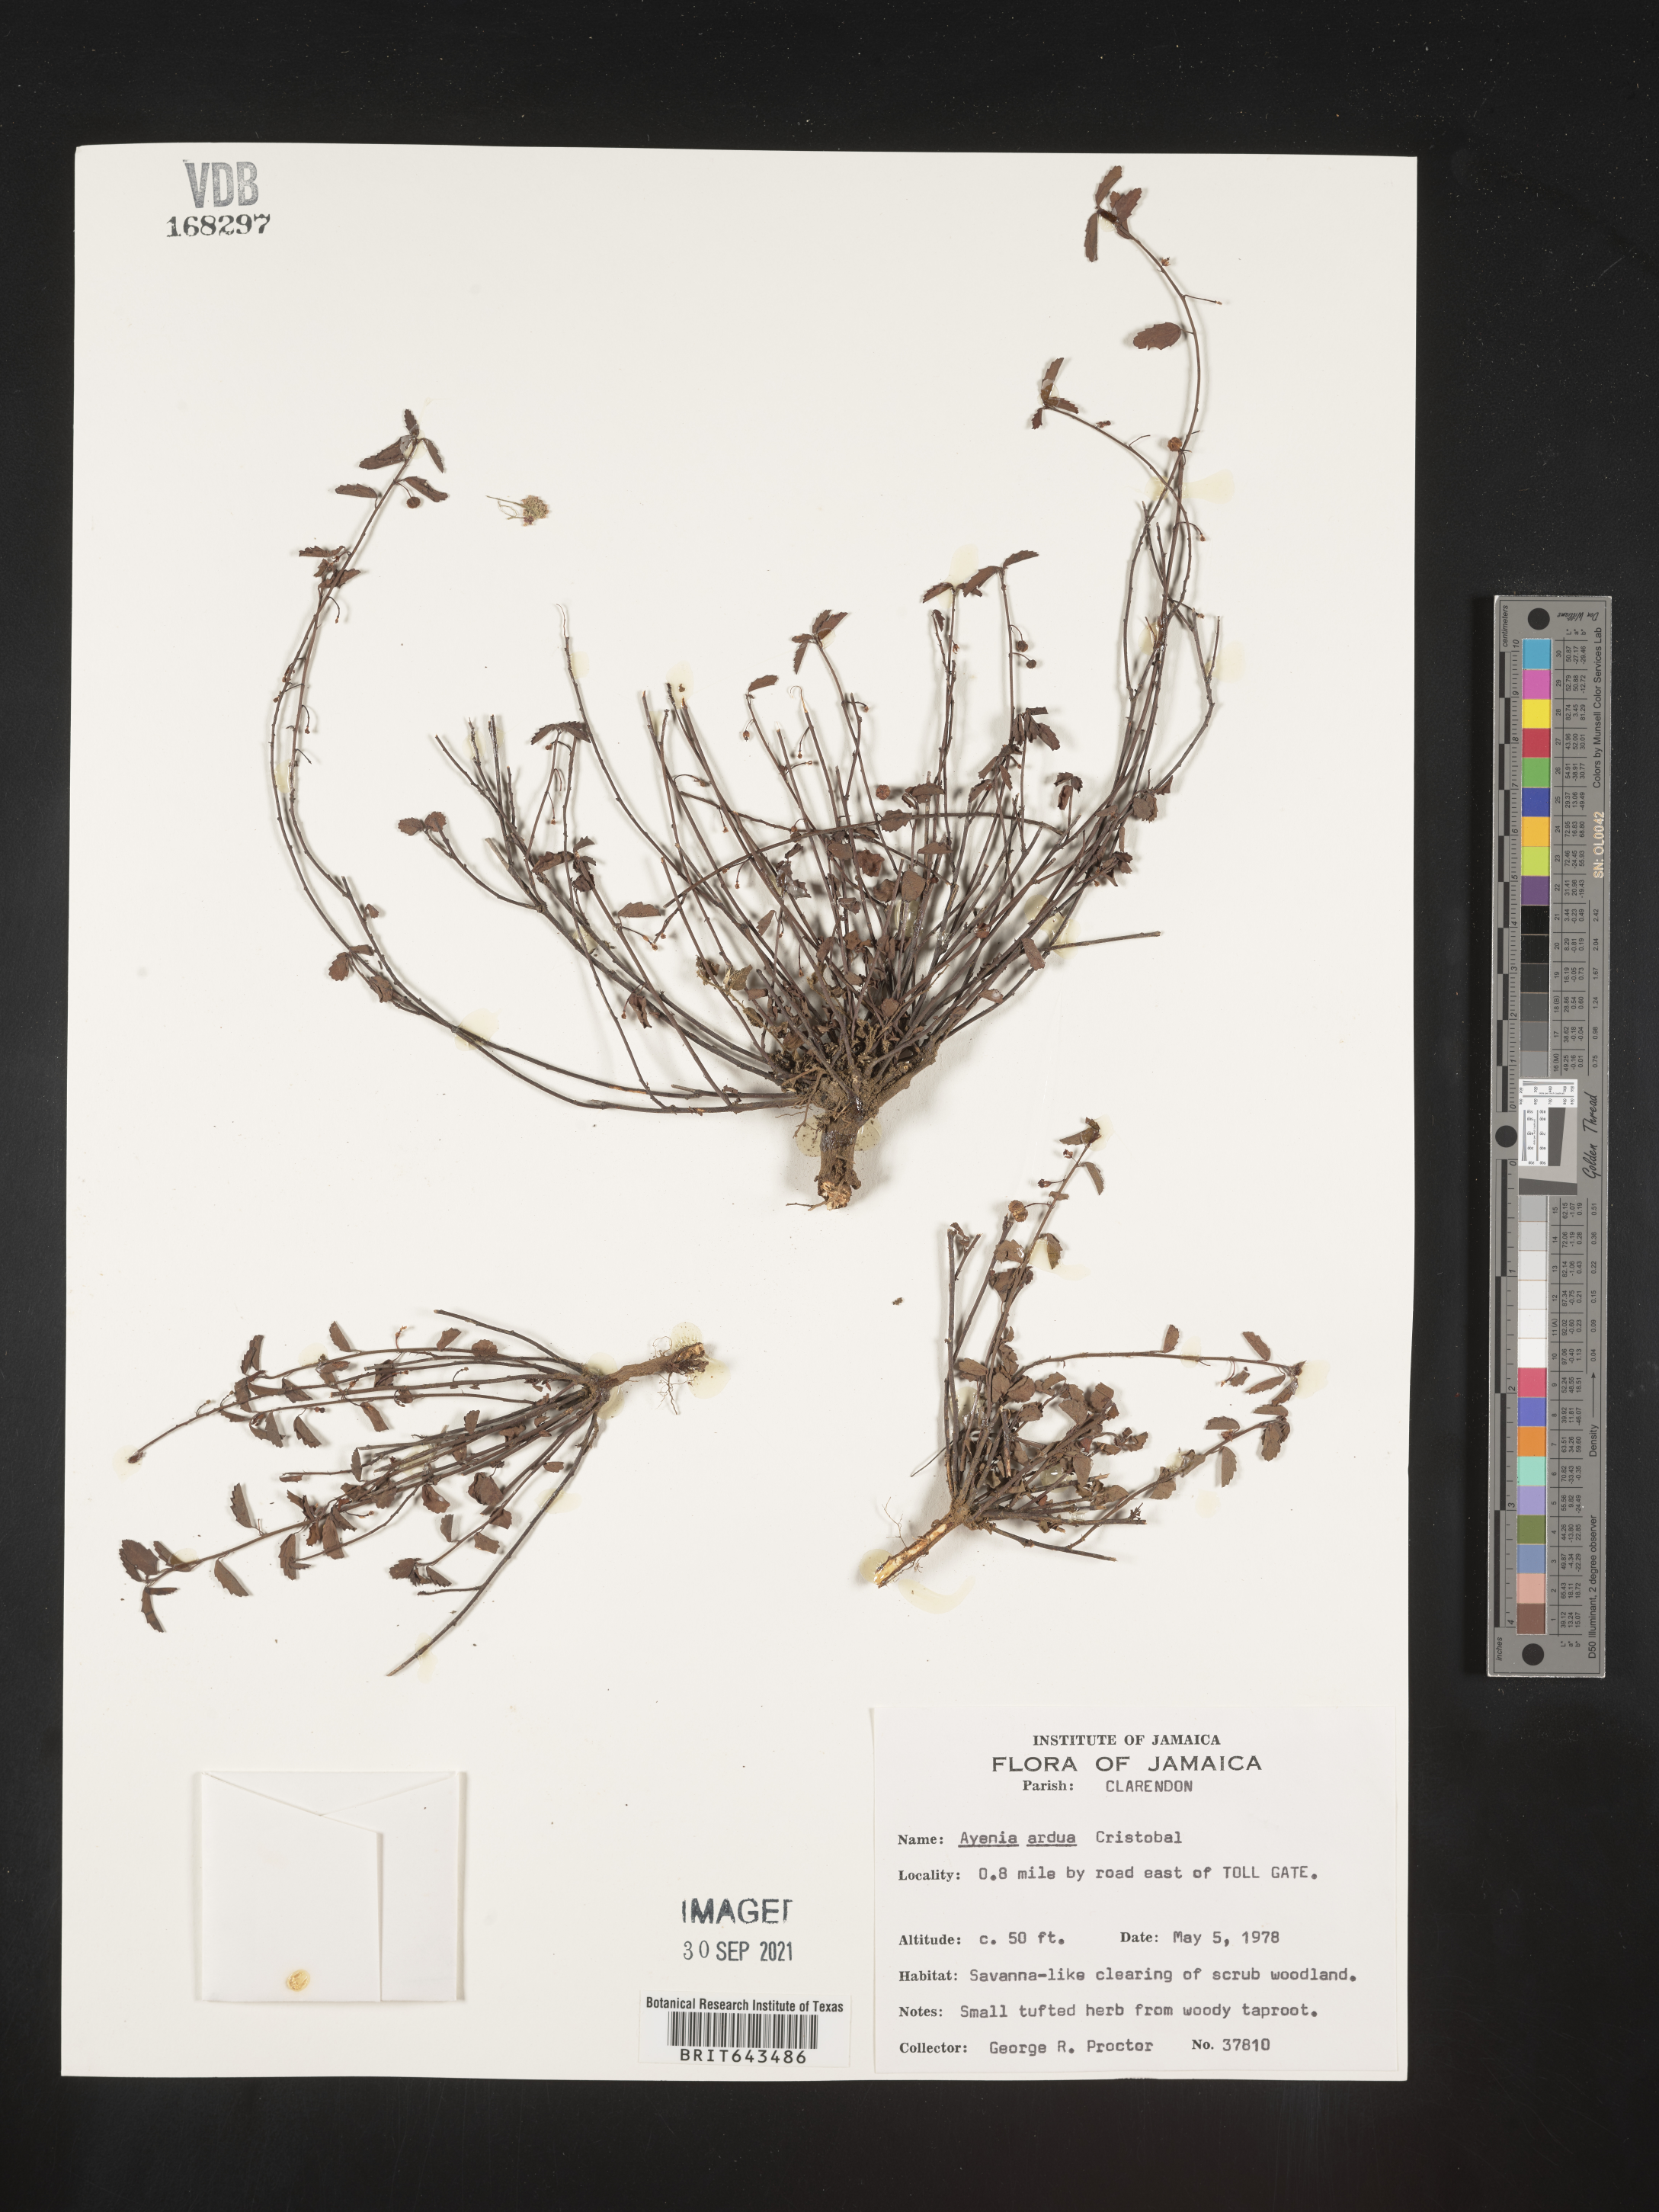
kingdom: Plantae
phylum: Tracheophyta
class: Magnoliopsida
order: Malvales
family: Malvaceae
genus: Ayenia
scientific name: Ayenia
